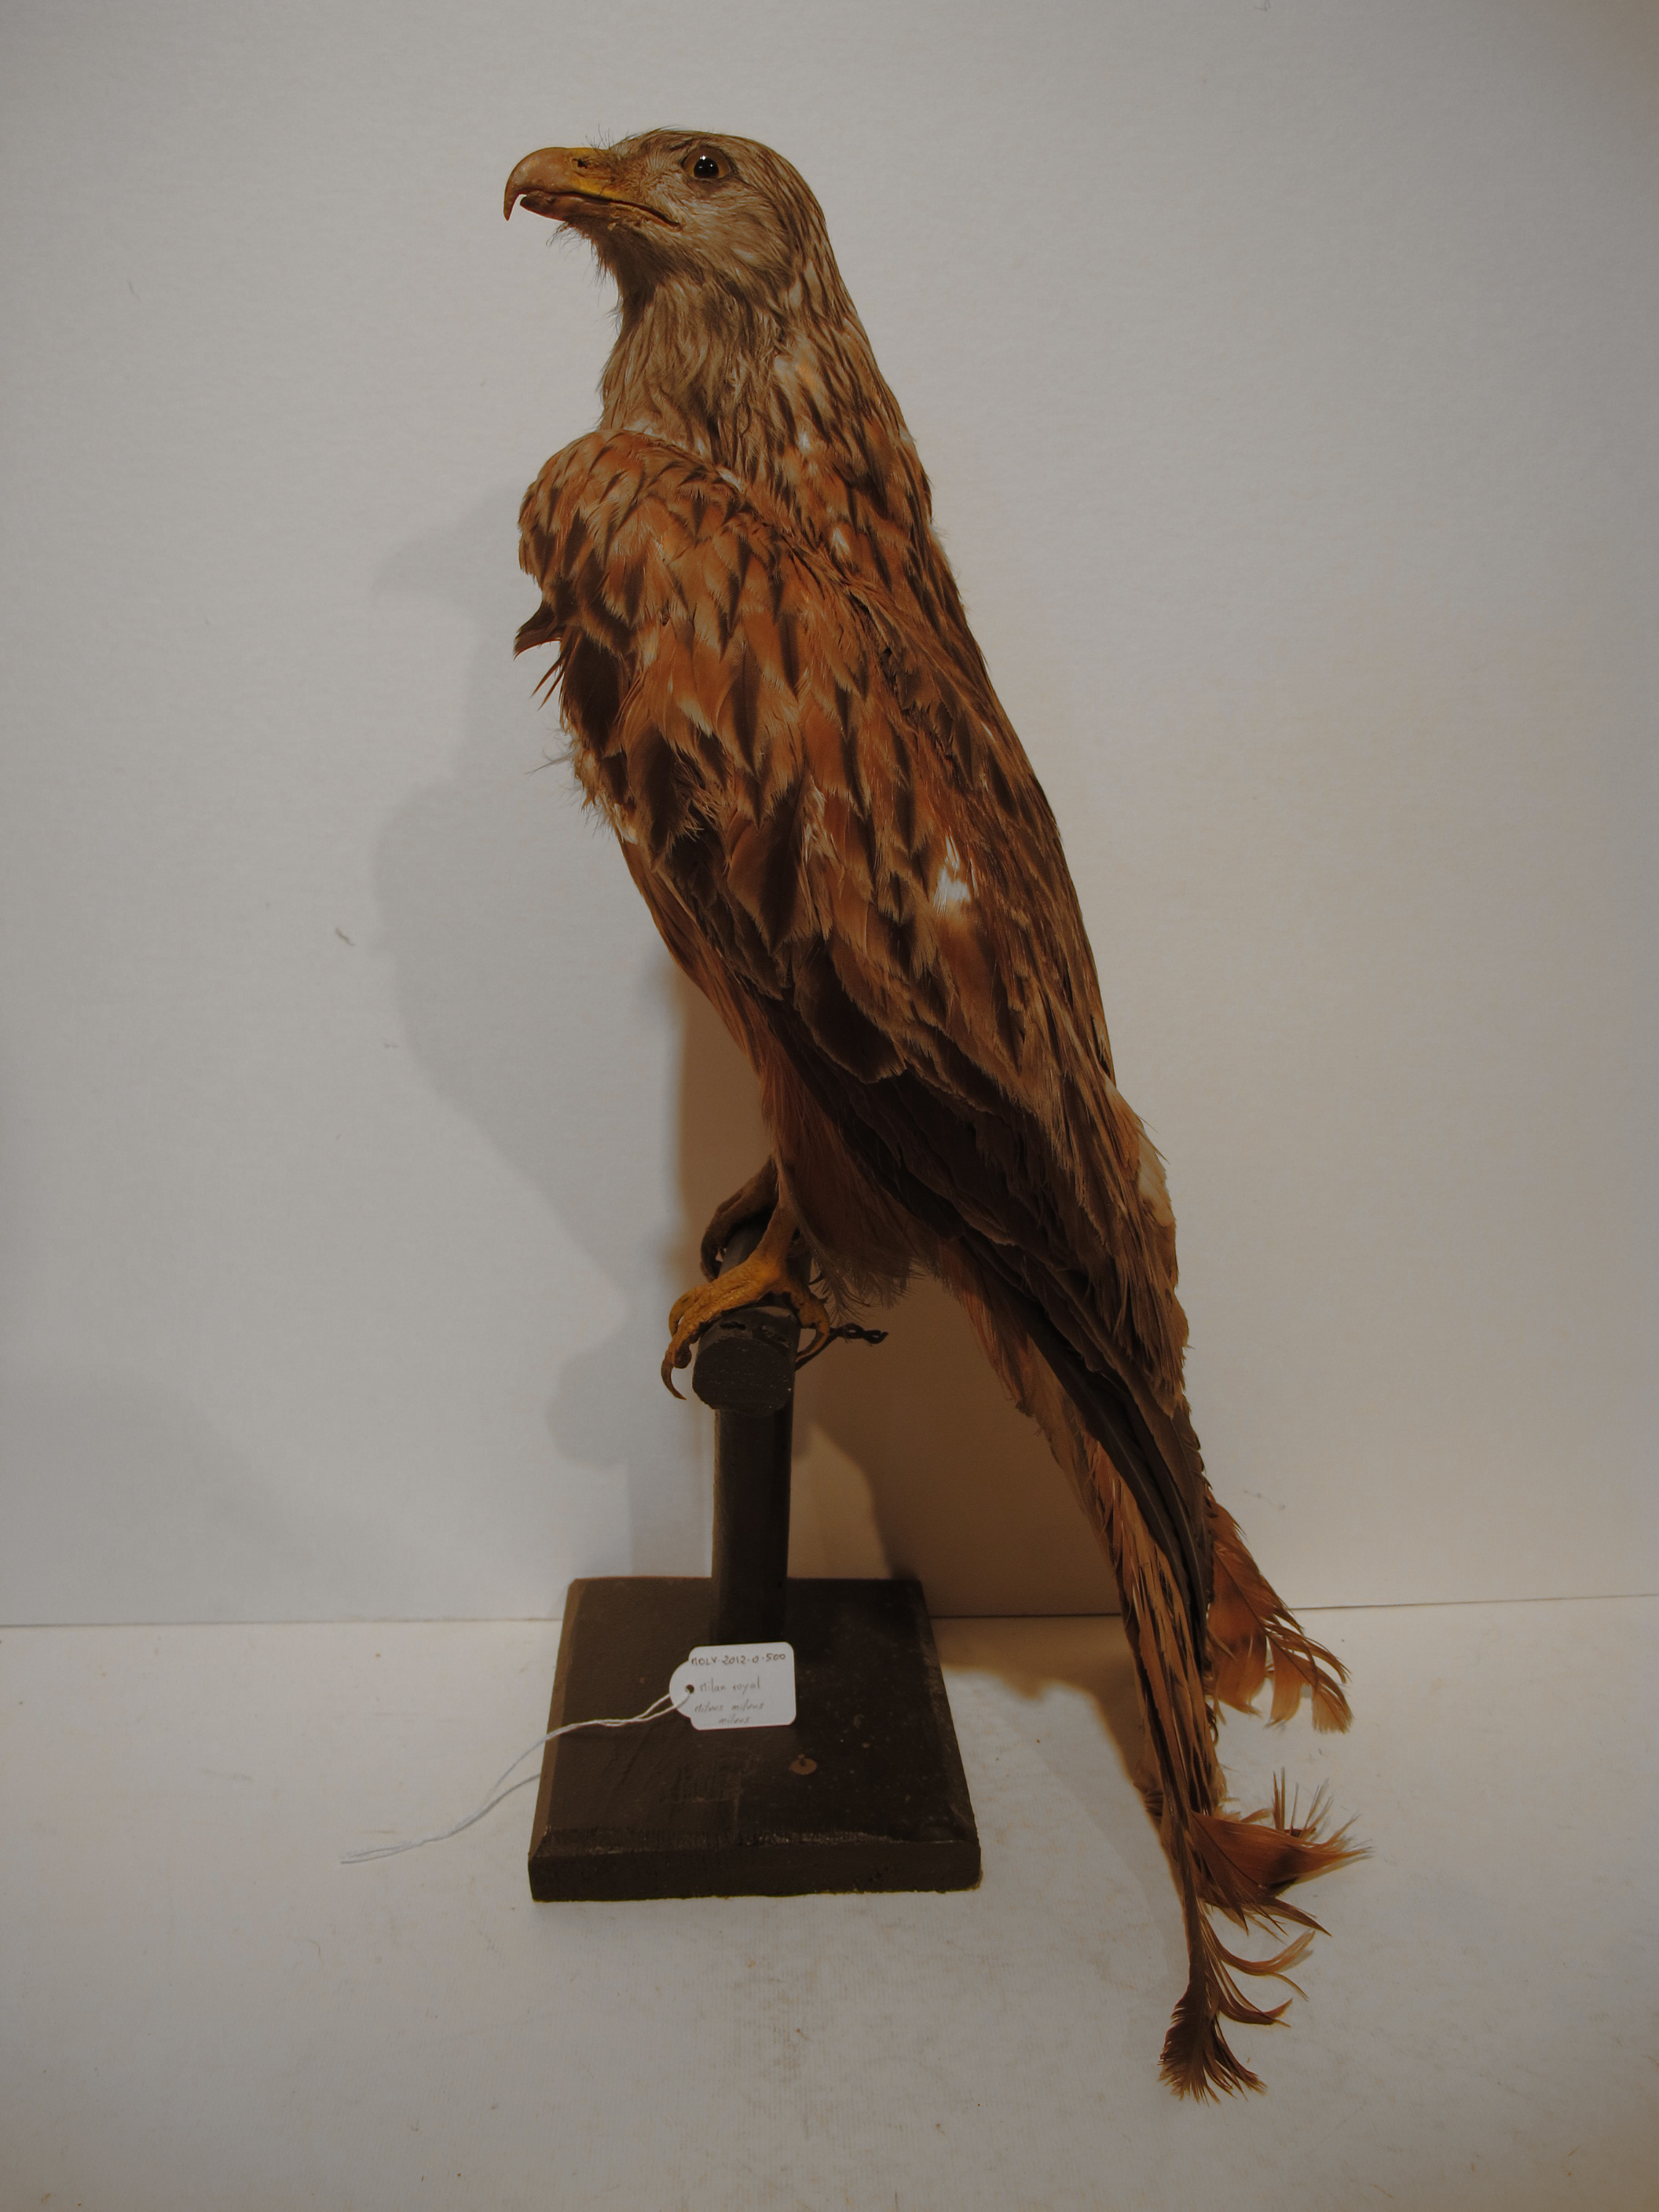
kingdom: Animalia
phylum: Chordata
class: Aves
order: Accipitriformes
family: Accipitridae
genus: Milvus
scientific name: Milvus milvus
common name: Red Kite
